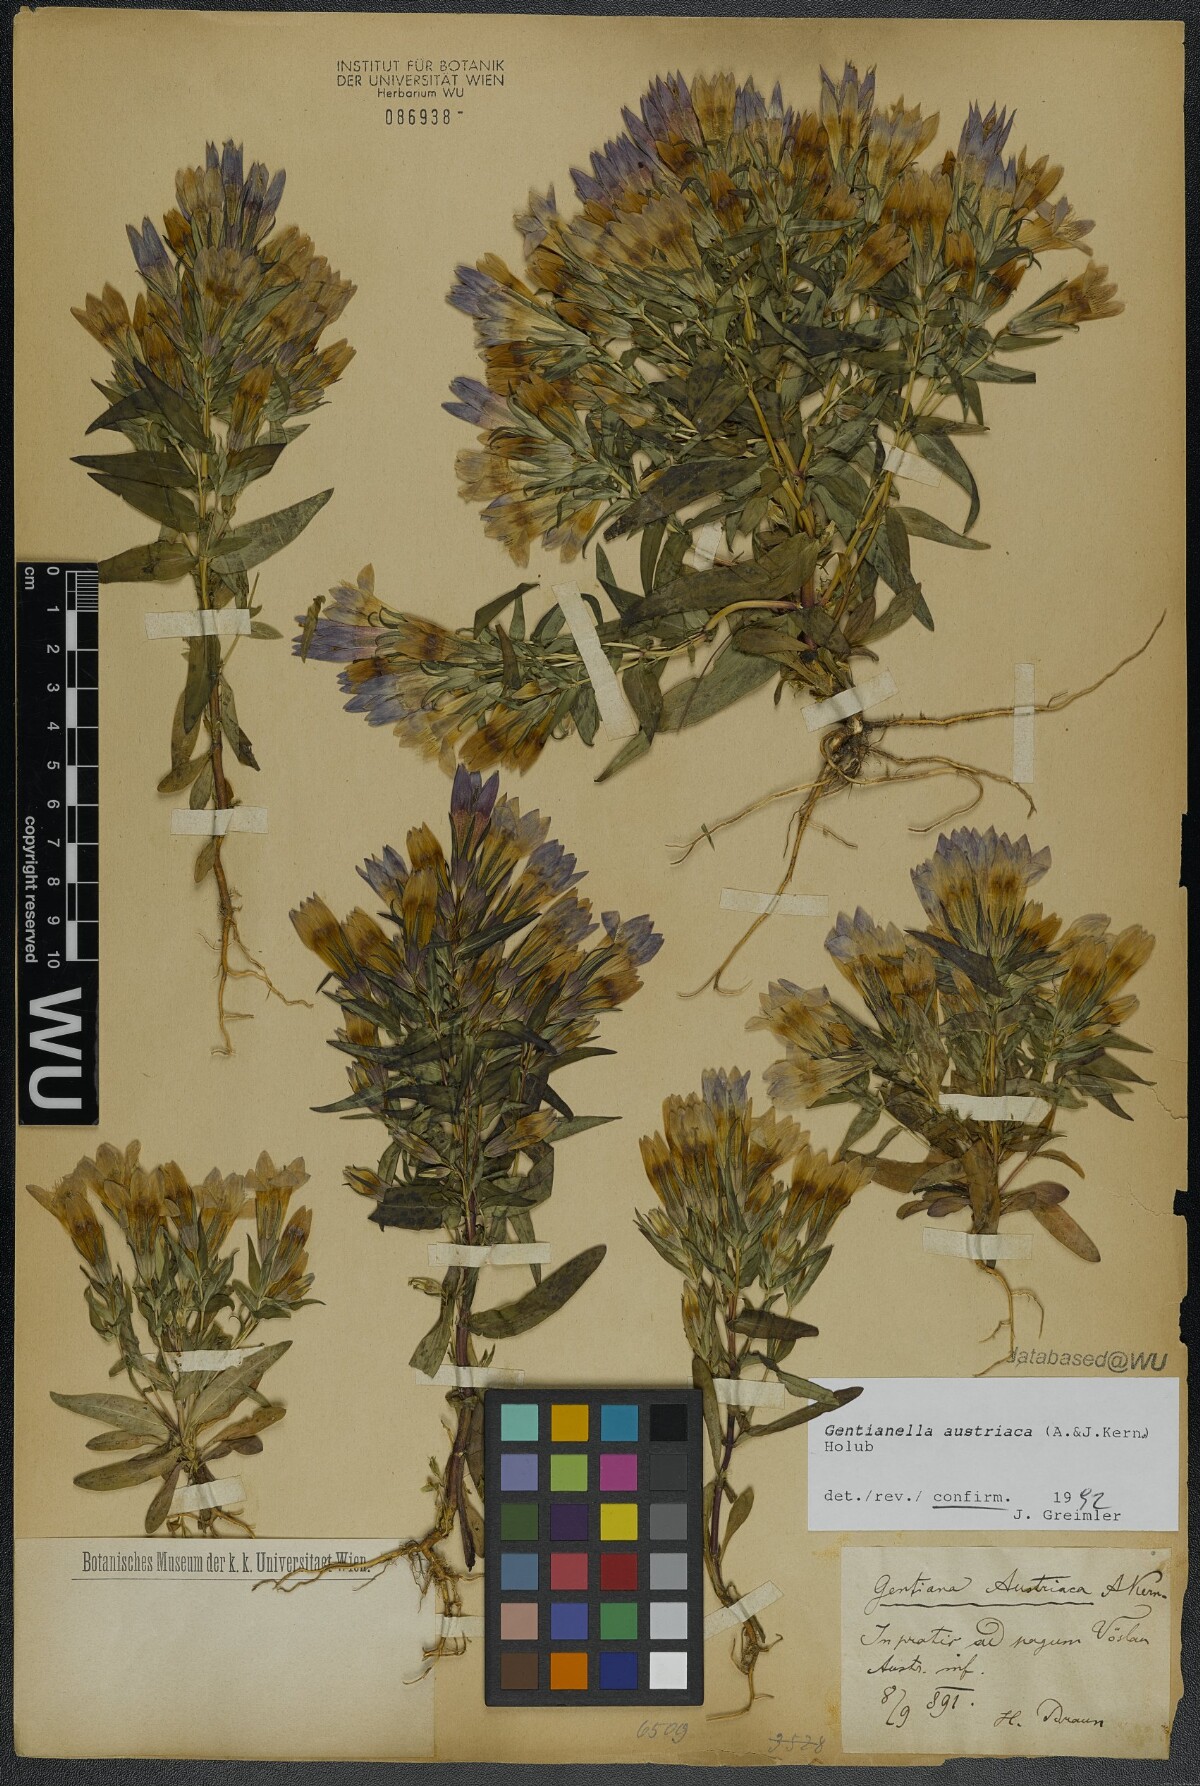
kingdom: Plantae
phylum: Tracheophyta
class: Magnoliopsida
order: Gentianales
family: Gentianaceae
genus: Gentianella
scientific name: Gentianella austriaca
